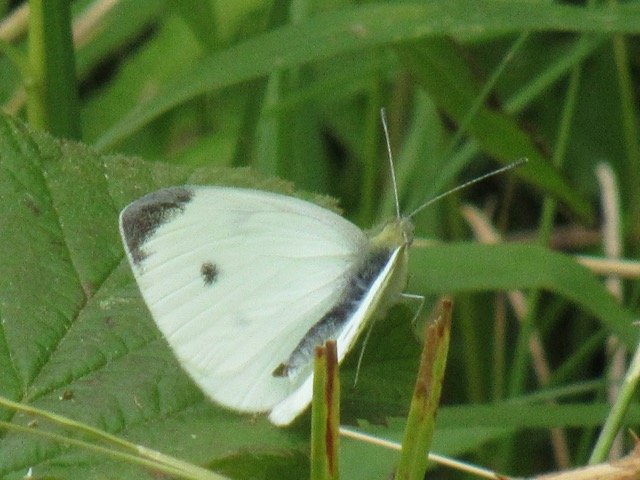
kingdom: Animalia
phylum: Arthropoda
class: Insecta
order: Lepidoptera
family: Pieridae
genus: Pieris
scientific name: Pieris rapae
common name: Cabbage White
